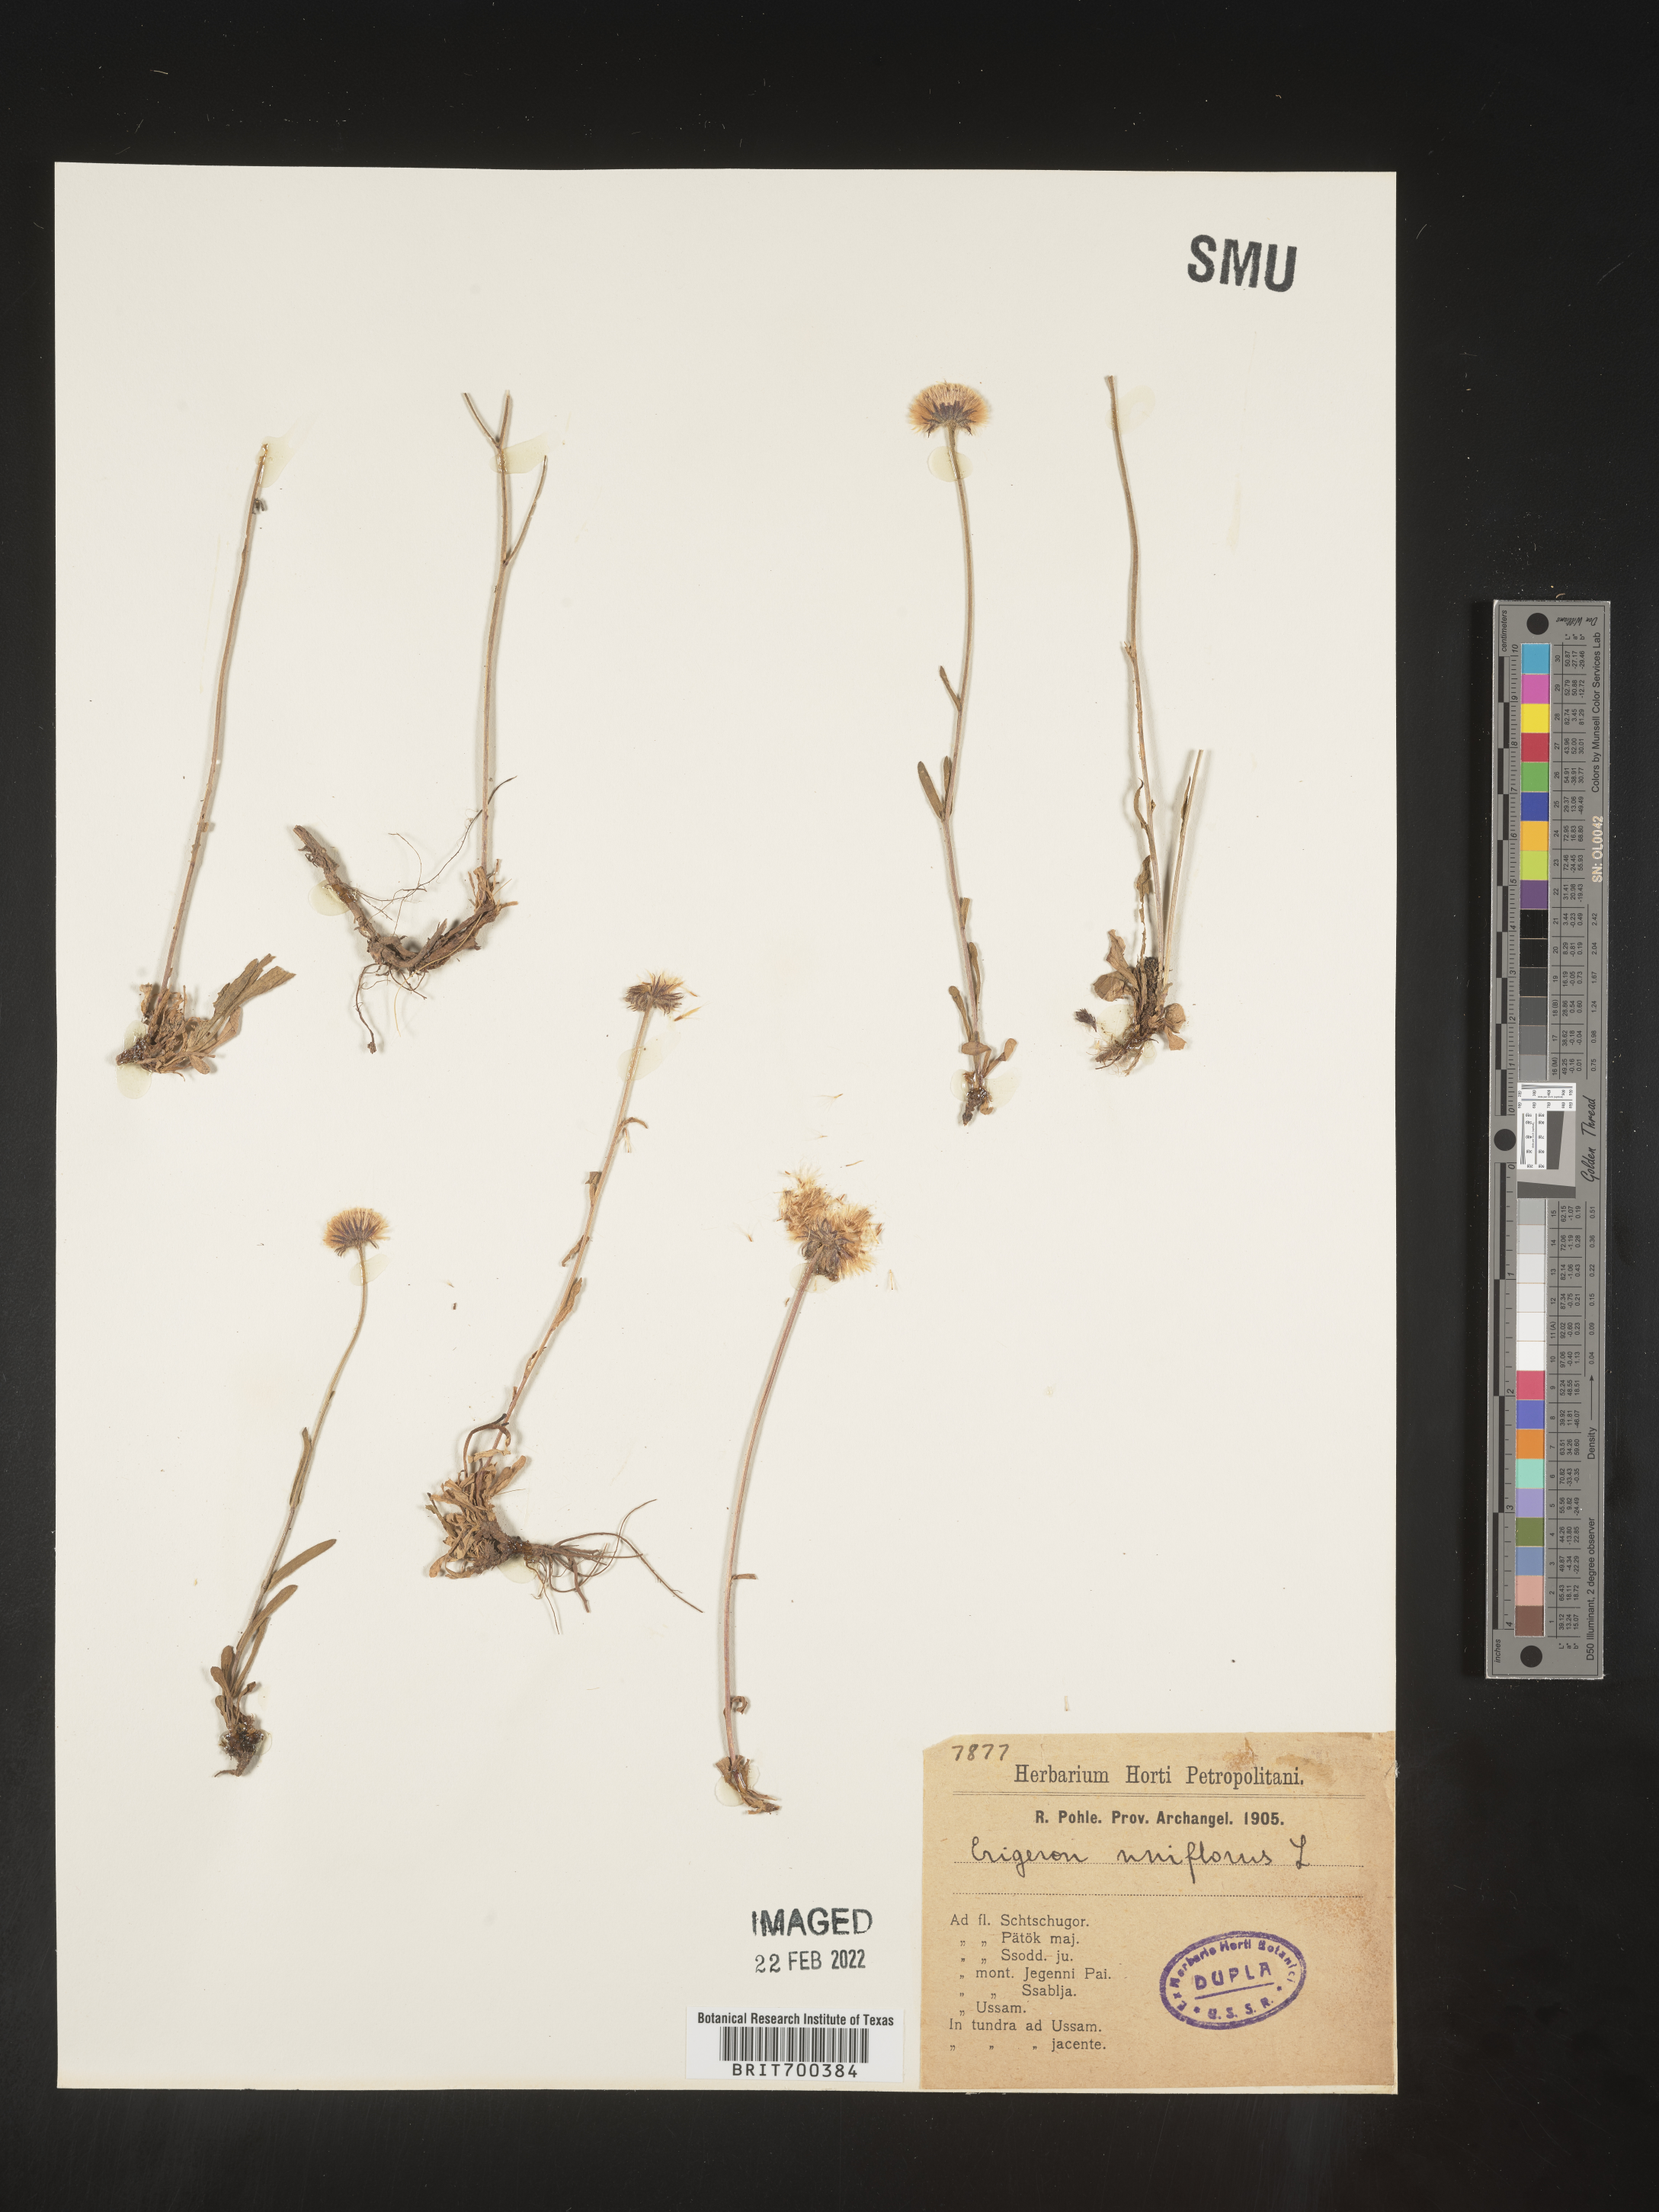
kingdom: Plantae
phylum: Tracheophyta
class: Magnoliopsida
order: Asterales
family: Asteraceae
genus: Erigeron
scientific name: Erigeron
